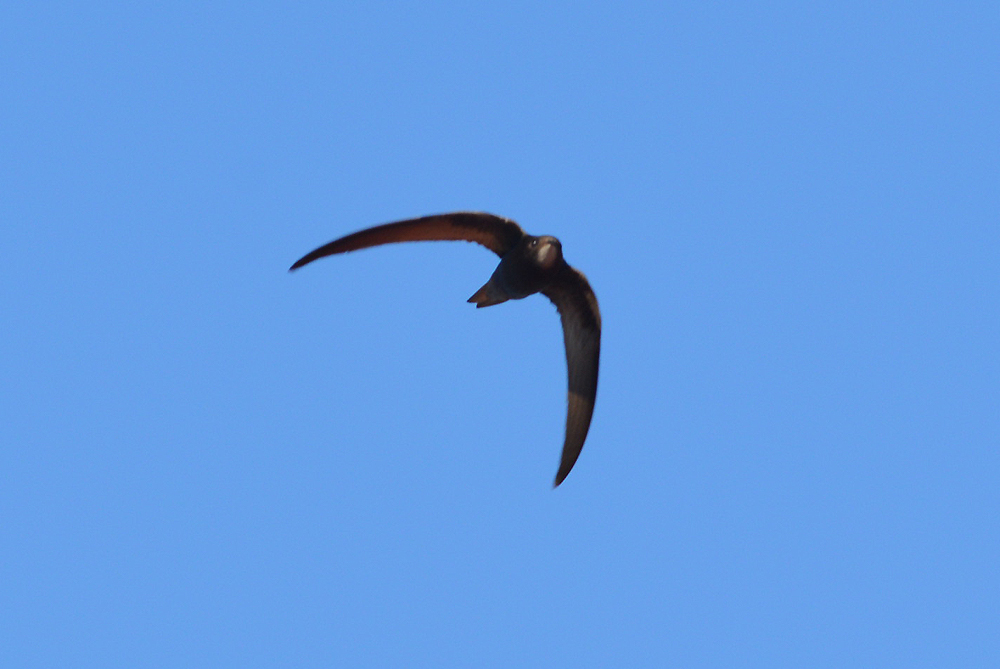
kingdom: Animalia
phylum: Chordata
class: Aves
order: Apodiformes
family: Apodidae
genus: Apus
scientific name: Apus apus
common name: Common swift
